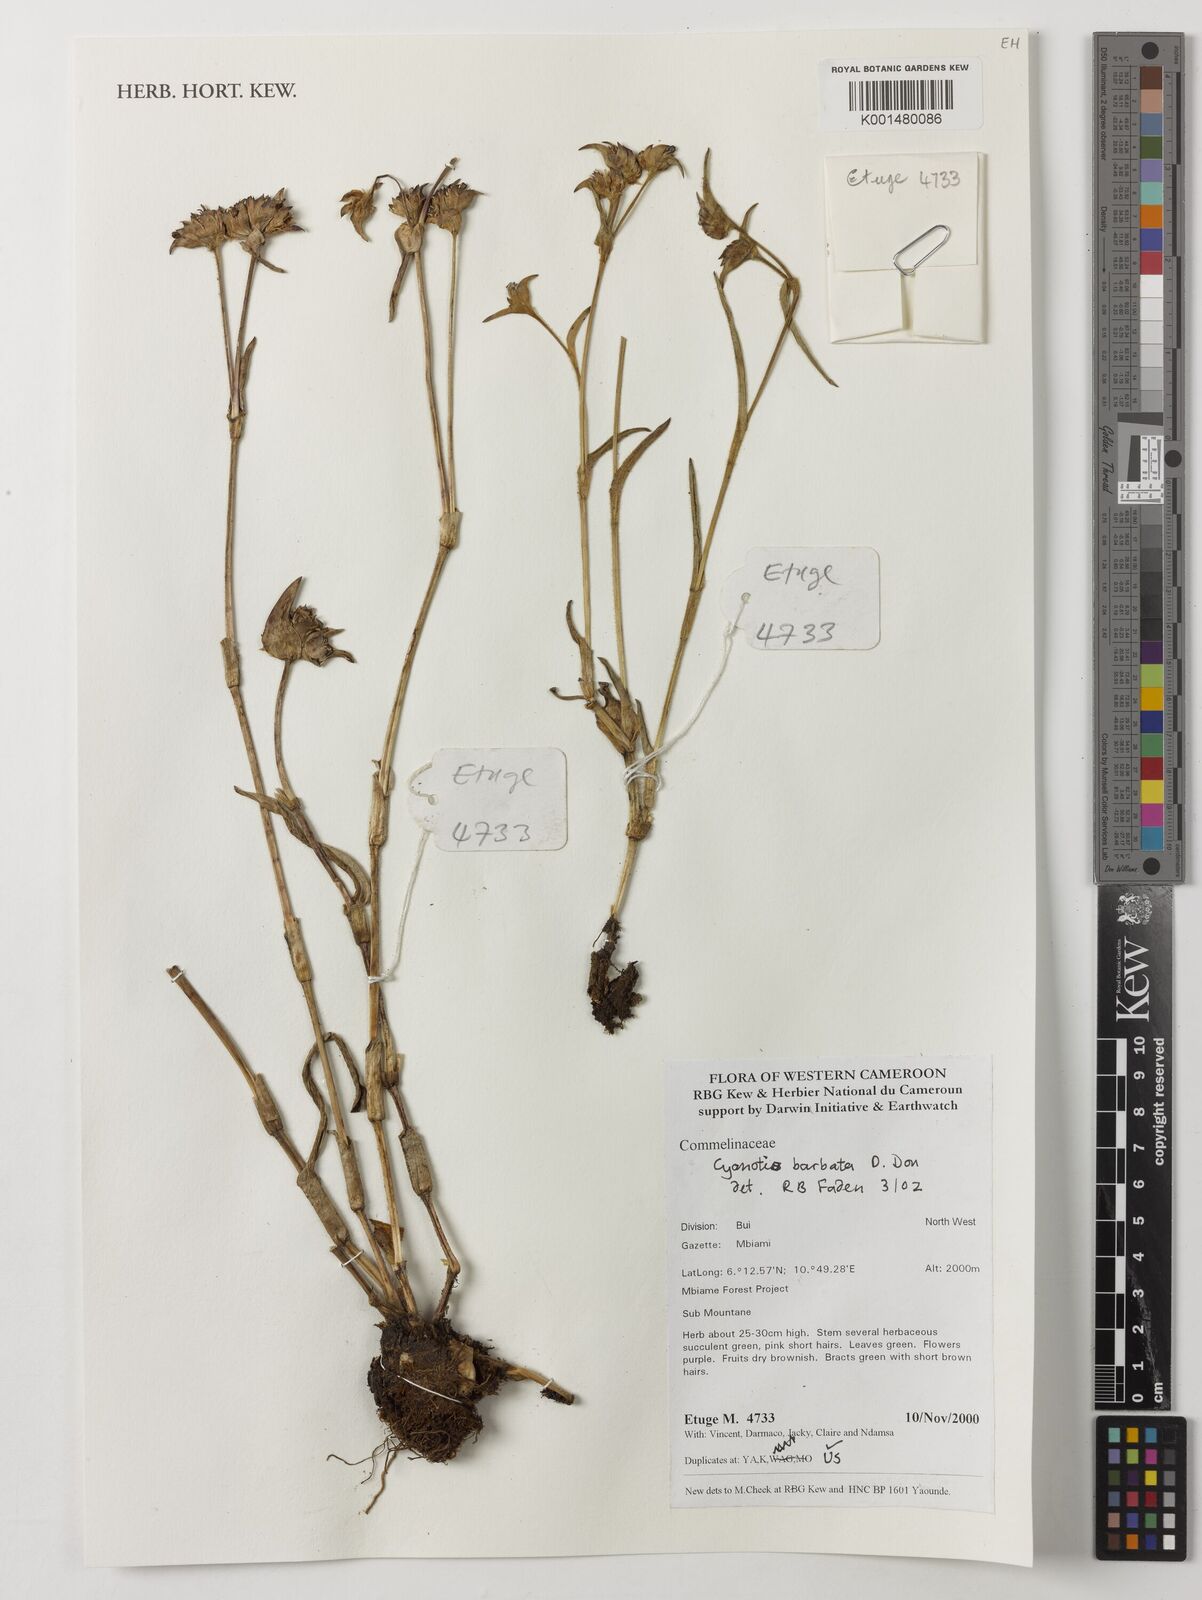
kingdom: Plantae
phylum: Tracheophyta
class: Liliopsida
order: Commelinales
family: Commelinaceae
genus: Cyanotis
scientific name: Cyanotis vaga
